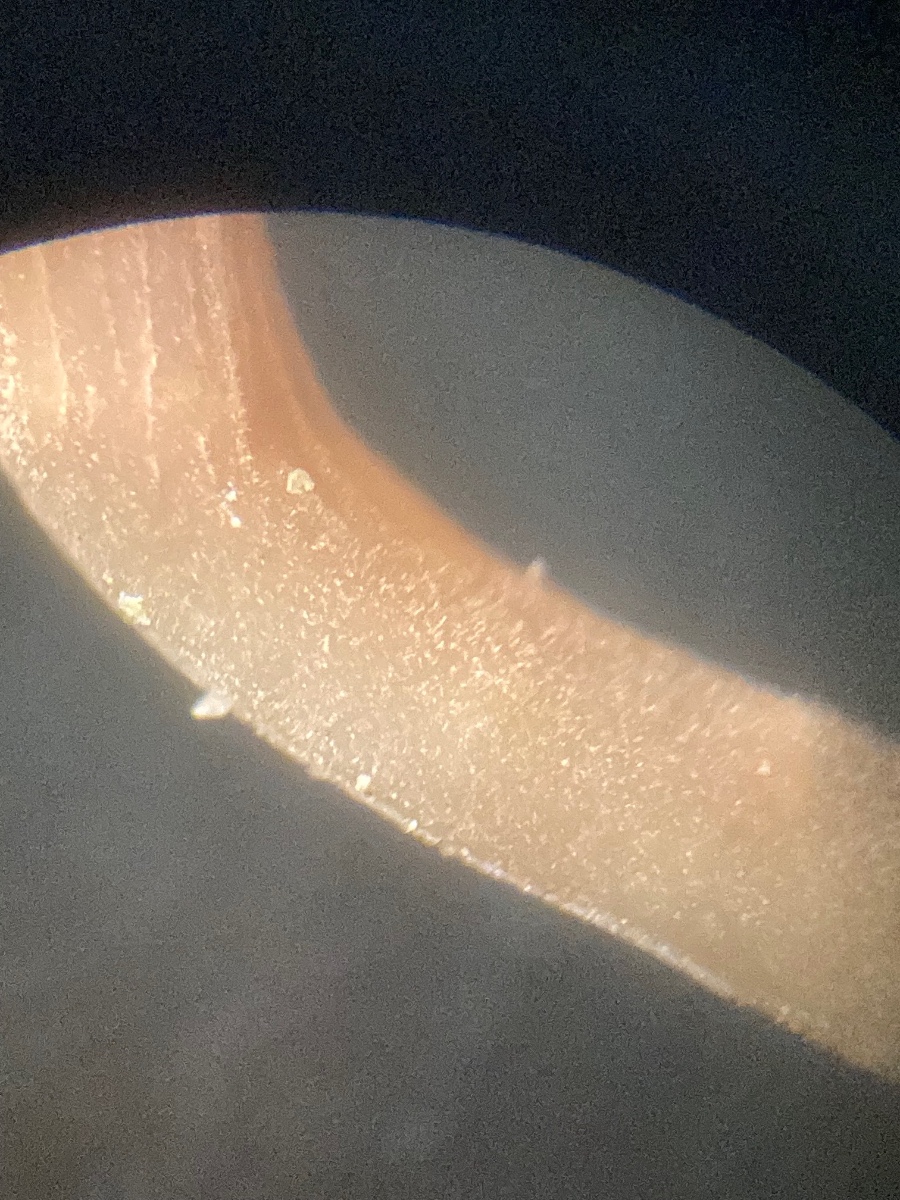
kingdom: Fungi
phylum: Basidiomycota
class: Agaricomycetes
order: Hymenochaetales
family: Rickenellaceae
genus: Contumyces
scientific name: Contumyces rosellus
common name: rosa mosnavlehat
